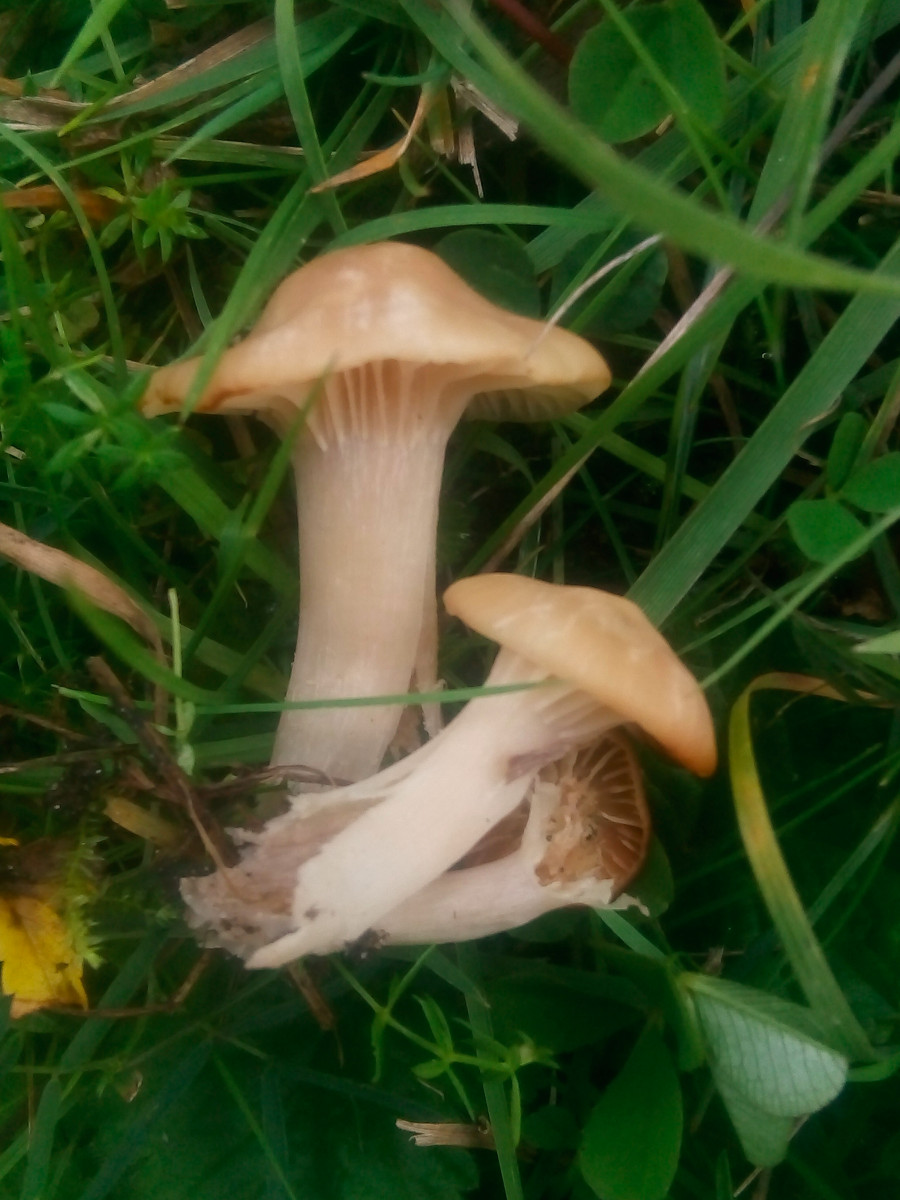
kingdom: Fungi
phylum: Basidiomycota
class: Agaricomycetes
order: Agaricales
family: Hygrophoraceae
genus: Cuphophyllus
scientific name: Cuphophyllus pratensis
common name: eng-vokshat
